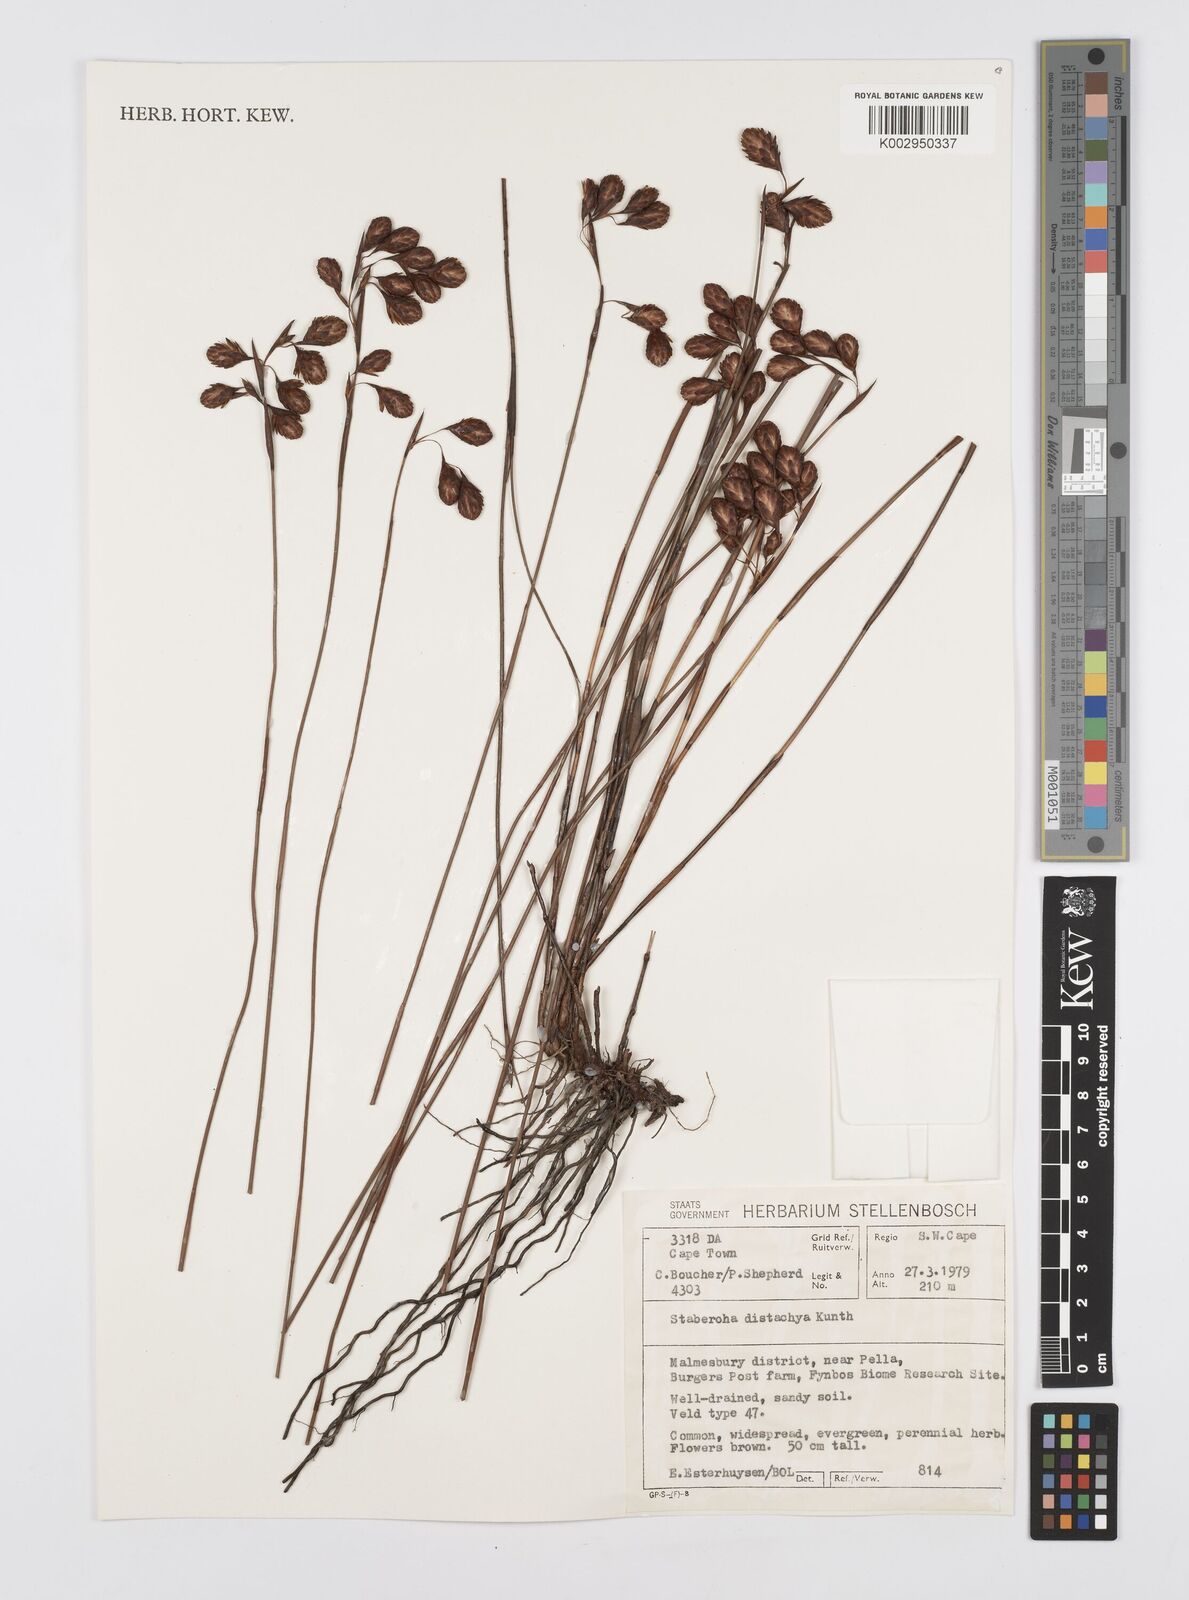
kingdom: Plantae
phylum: Tracheophyta
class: Liliopsida
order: Poales
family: Restionaceae
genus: Staberoha
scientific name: Staberoha distachyos
